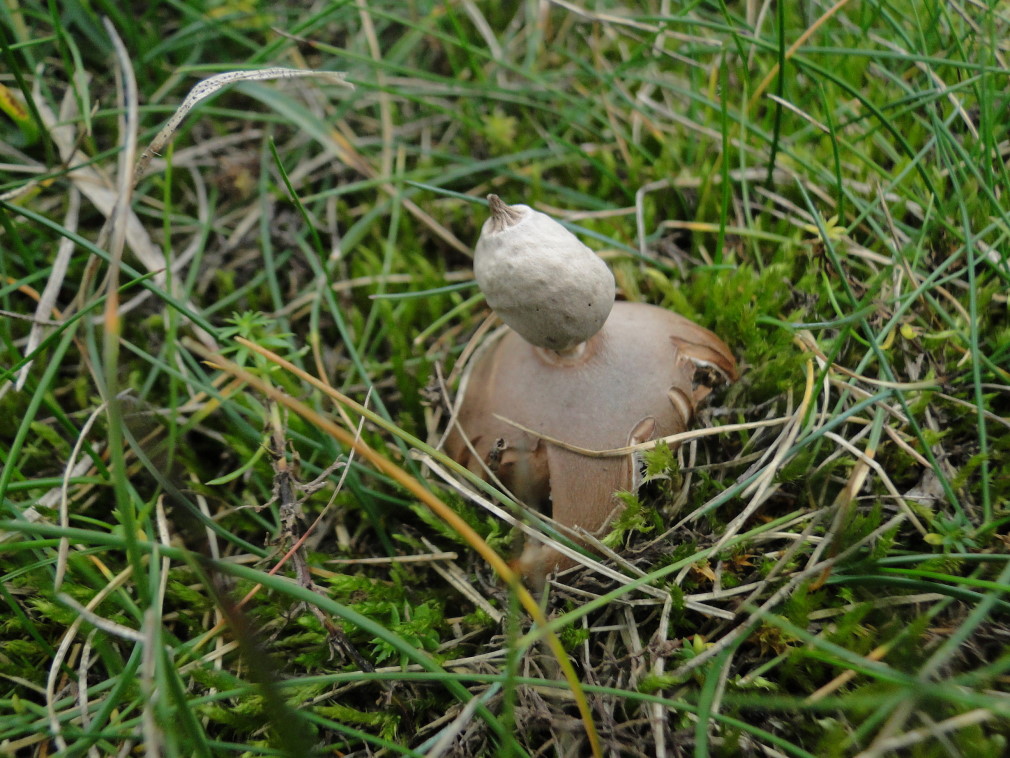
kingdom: Fungi
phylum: Basidiomycota
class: Agaricomycetes
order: Geastrales
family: Geastraceae
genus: Geastrum
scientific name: Geastrum striatum
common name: dværg-stjernebold
